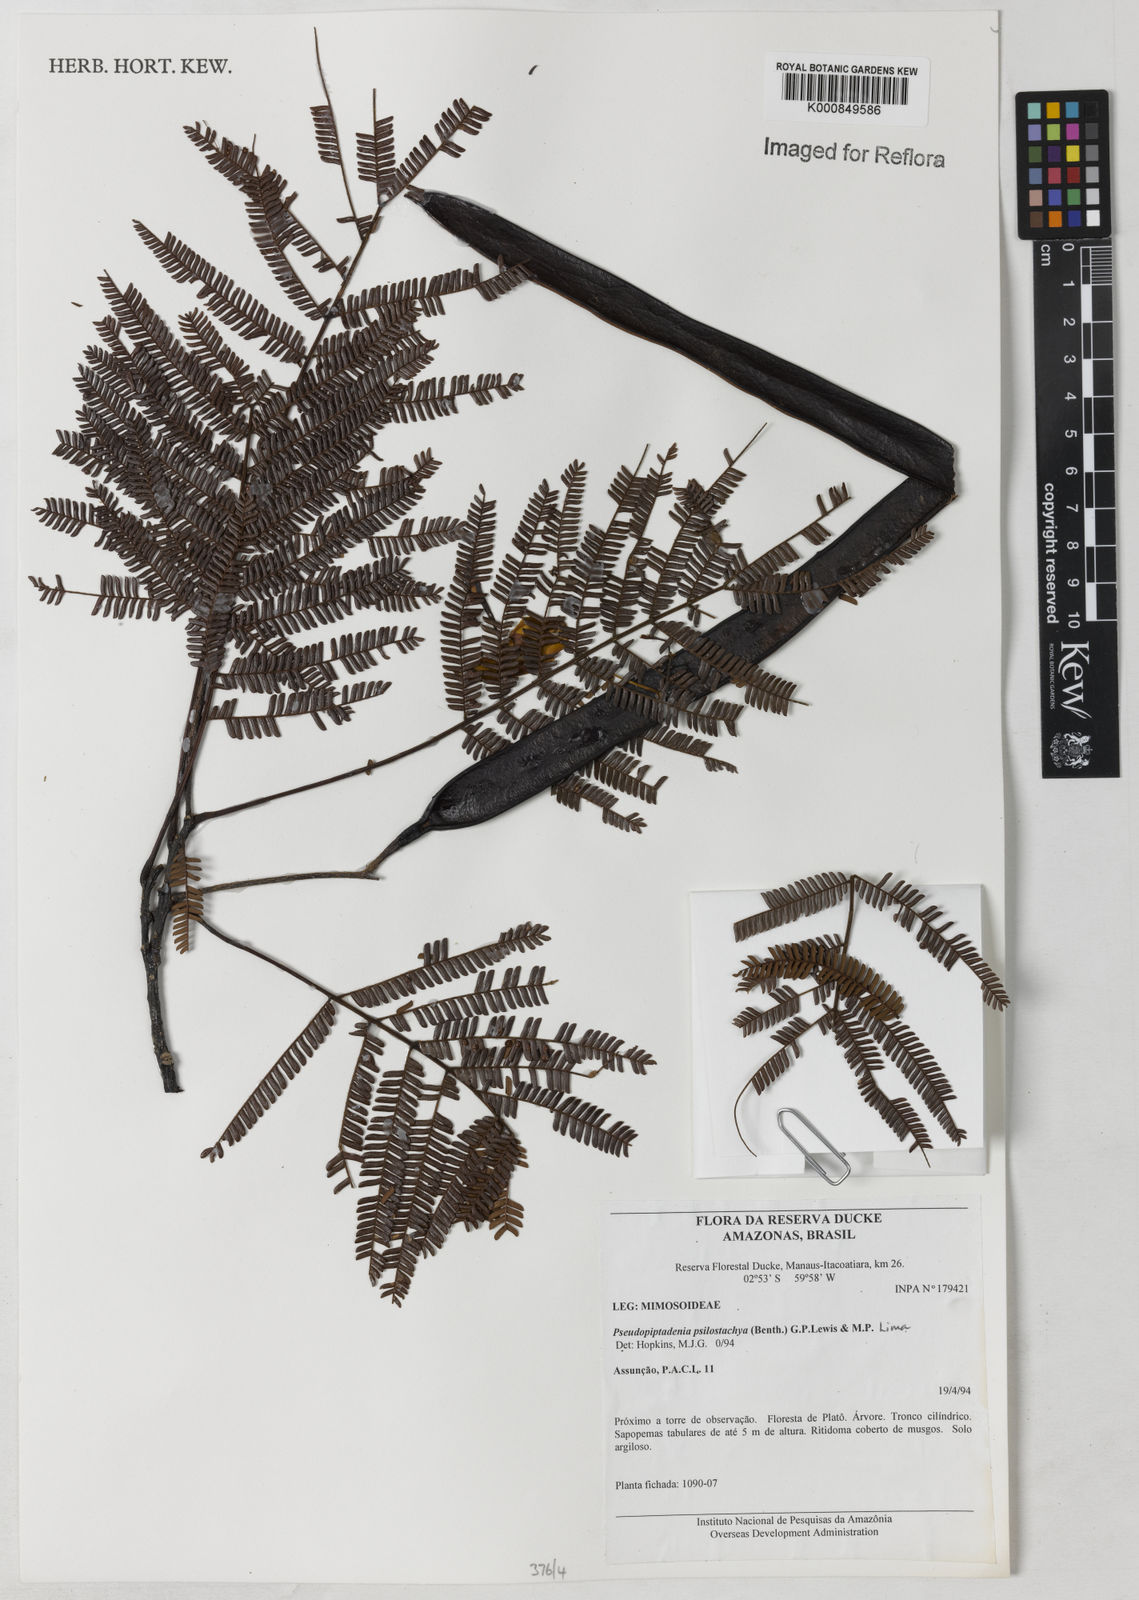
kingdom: Plantae
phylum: Tracheophyta
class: Magnoliopsida
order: Fabales
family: Fabaceae
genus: Pseudopiptadenia
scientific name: Pseudopiptadenia psilostachya
